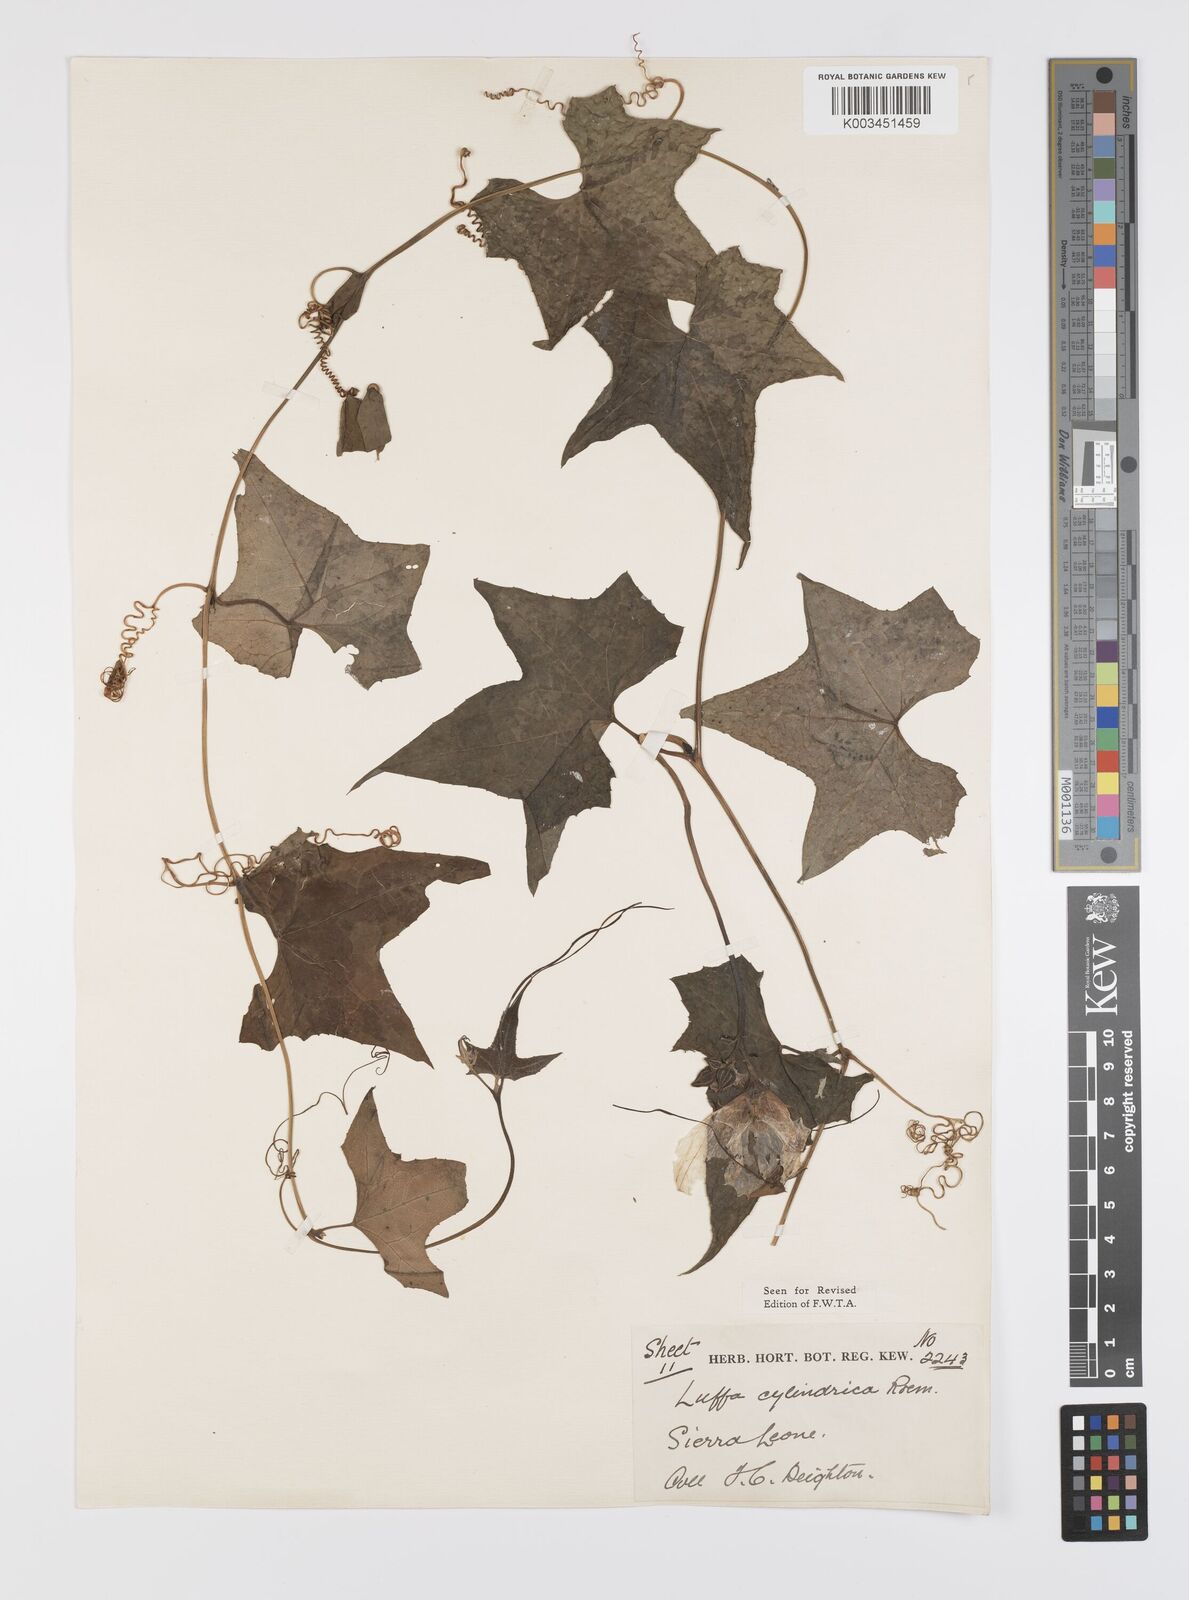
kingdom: Plantae
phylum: Tracheophyta
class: Magnoliopsida
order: Cucurbitales
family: Cucurbitaceae
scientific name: Cucurbitaceae
